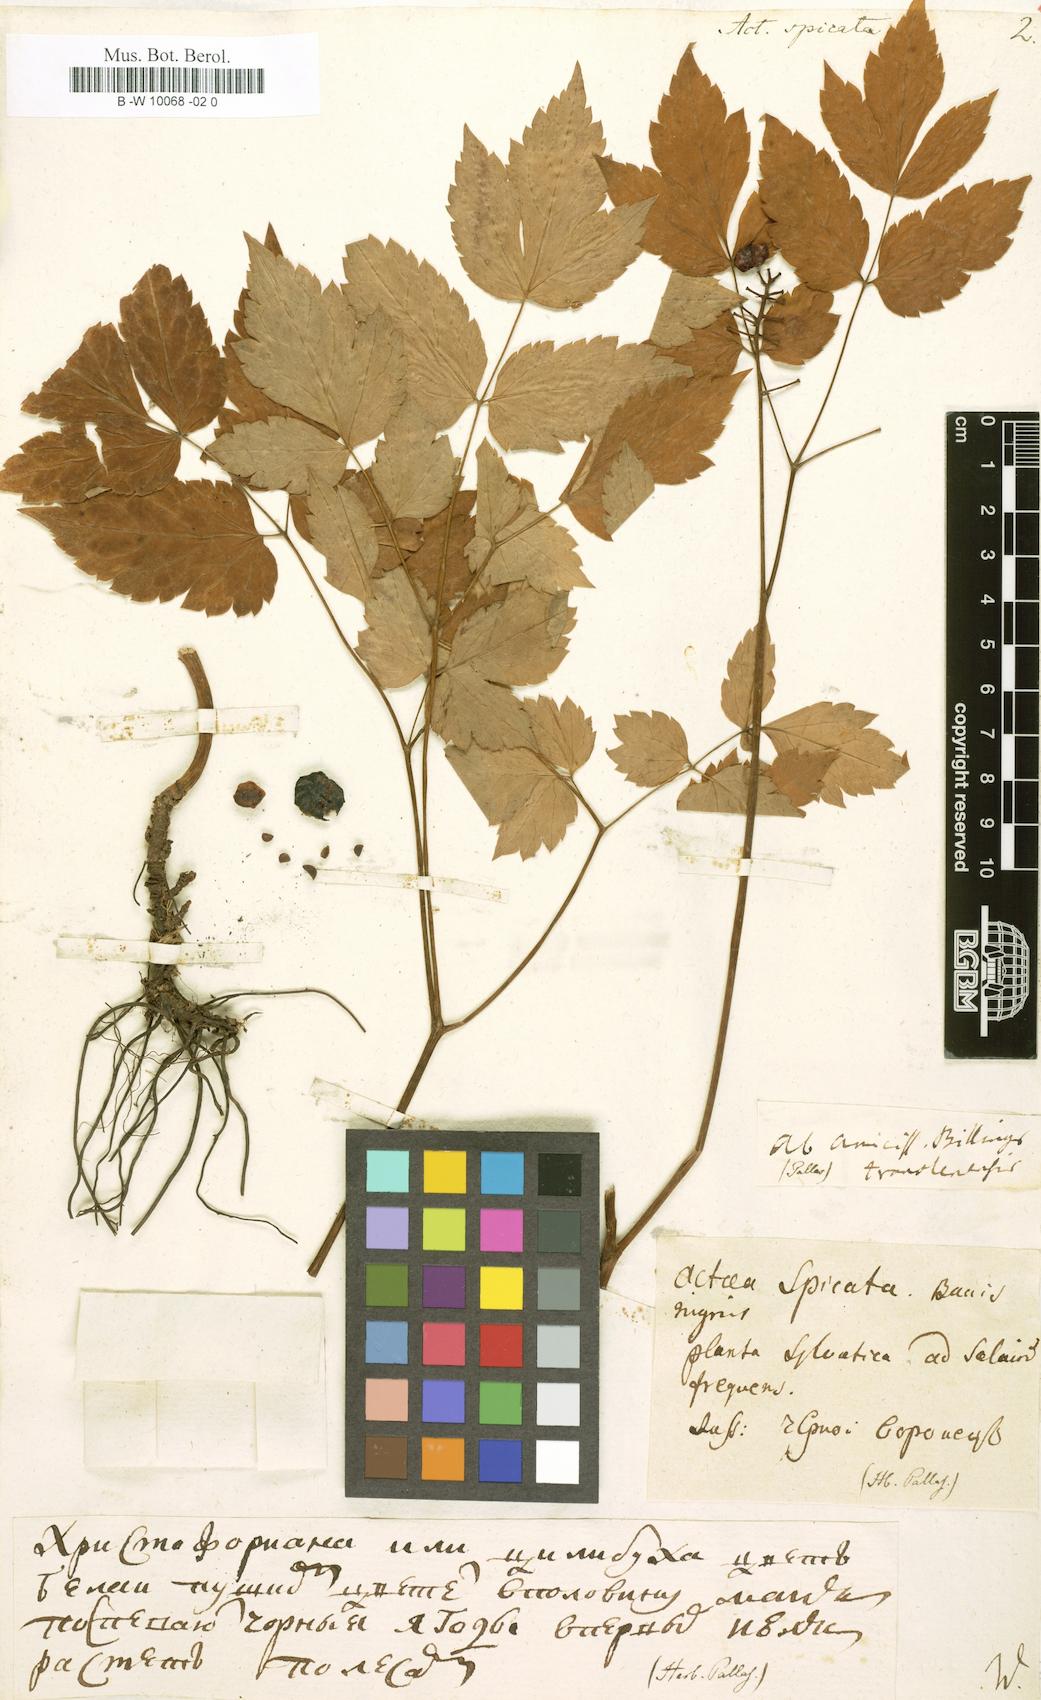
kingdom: Plantae
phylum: Tracheophyta
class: Magnoliopsida
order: Ranunculales
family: Ranunculaceae
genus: Actaea
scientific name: Actaea spicata
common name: Baneberry
